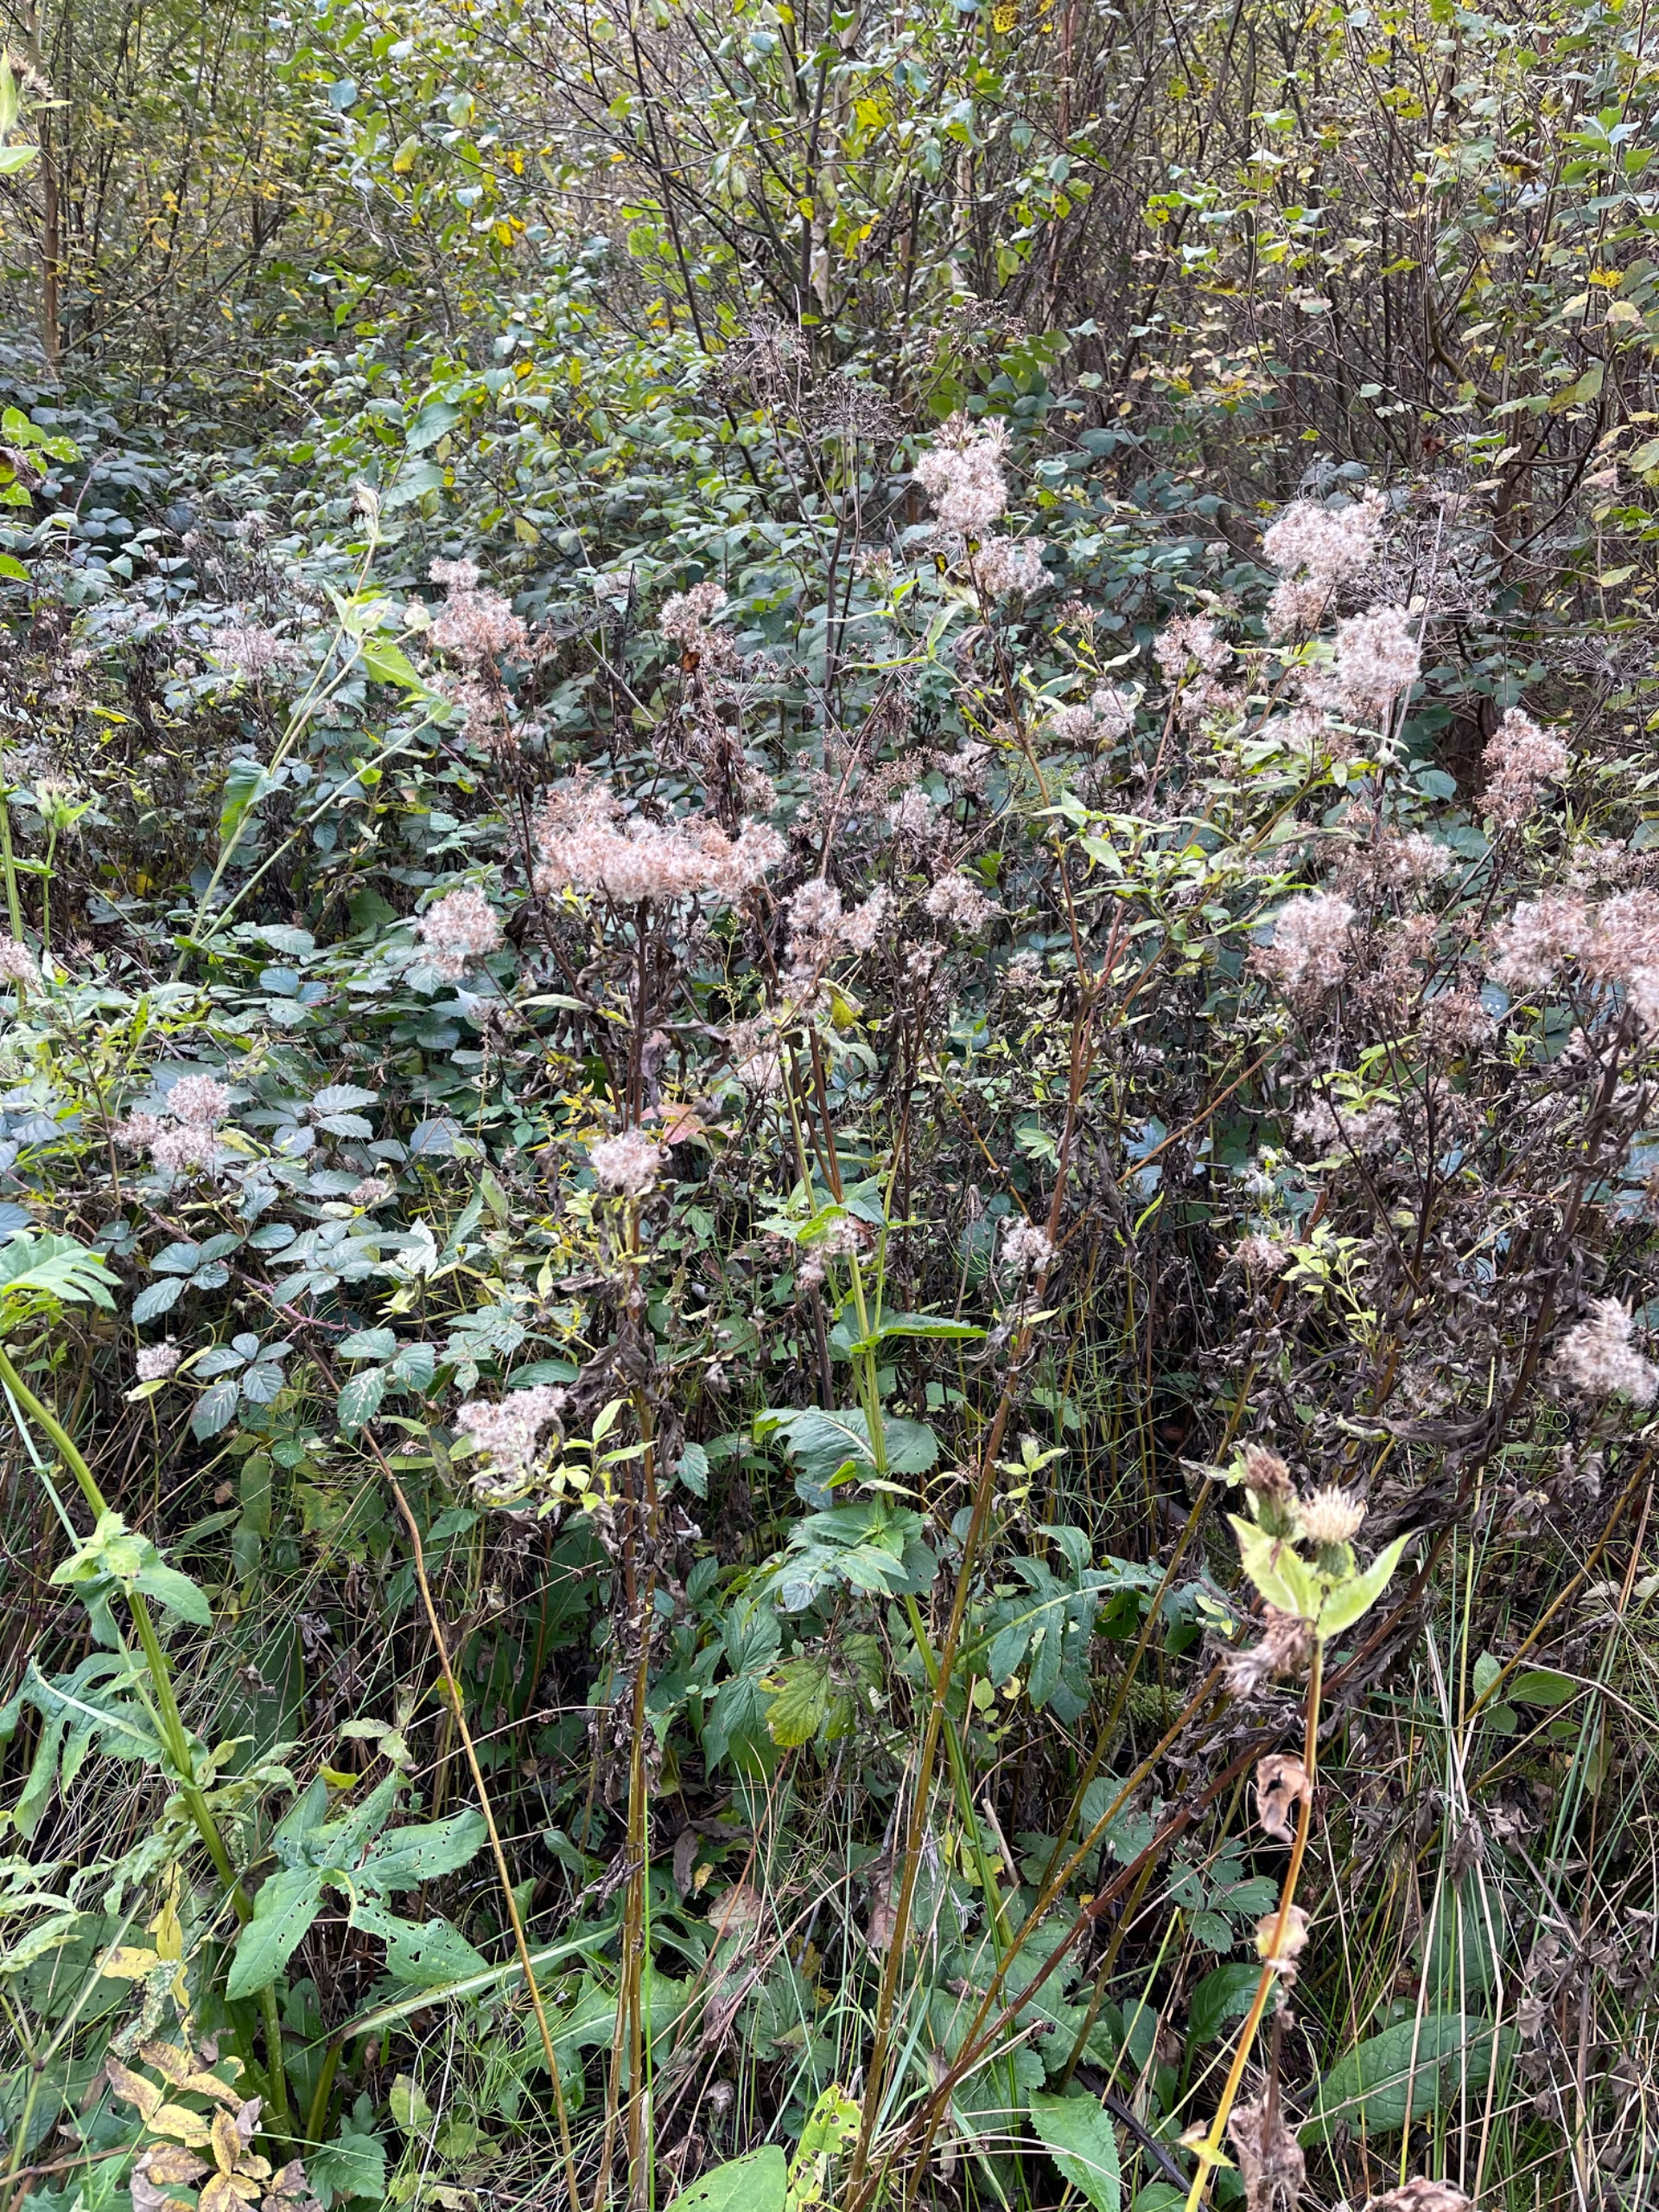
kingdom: Plantae
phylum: Tracheophyta
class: Magnoliopsida
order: Asterales
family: Asteraceae
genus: Eupatorium
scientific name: Eupatorium cannabinum
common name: Hjortetrøst
